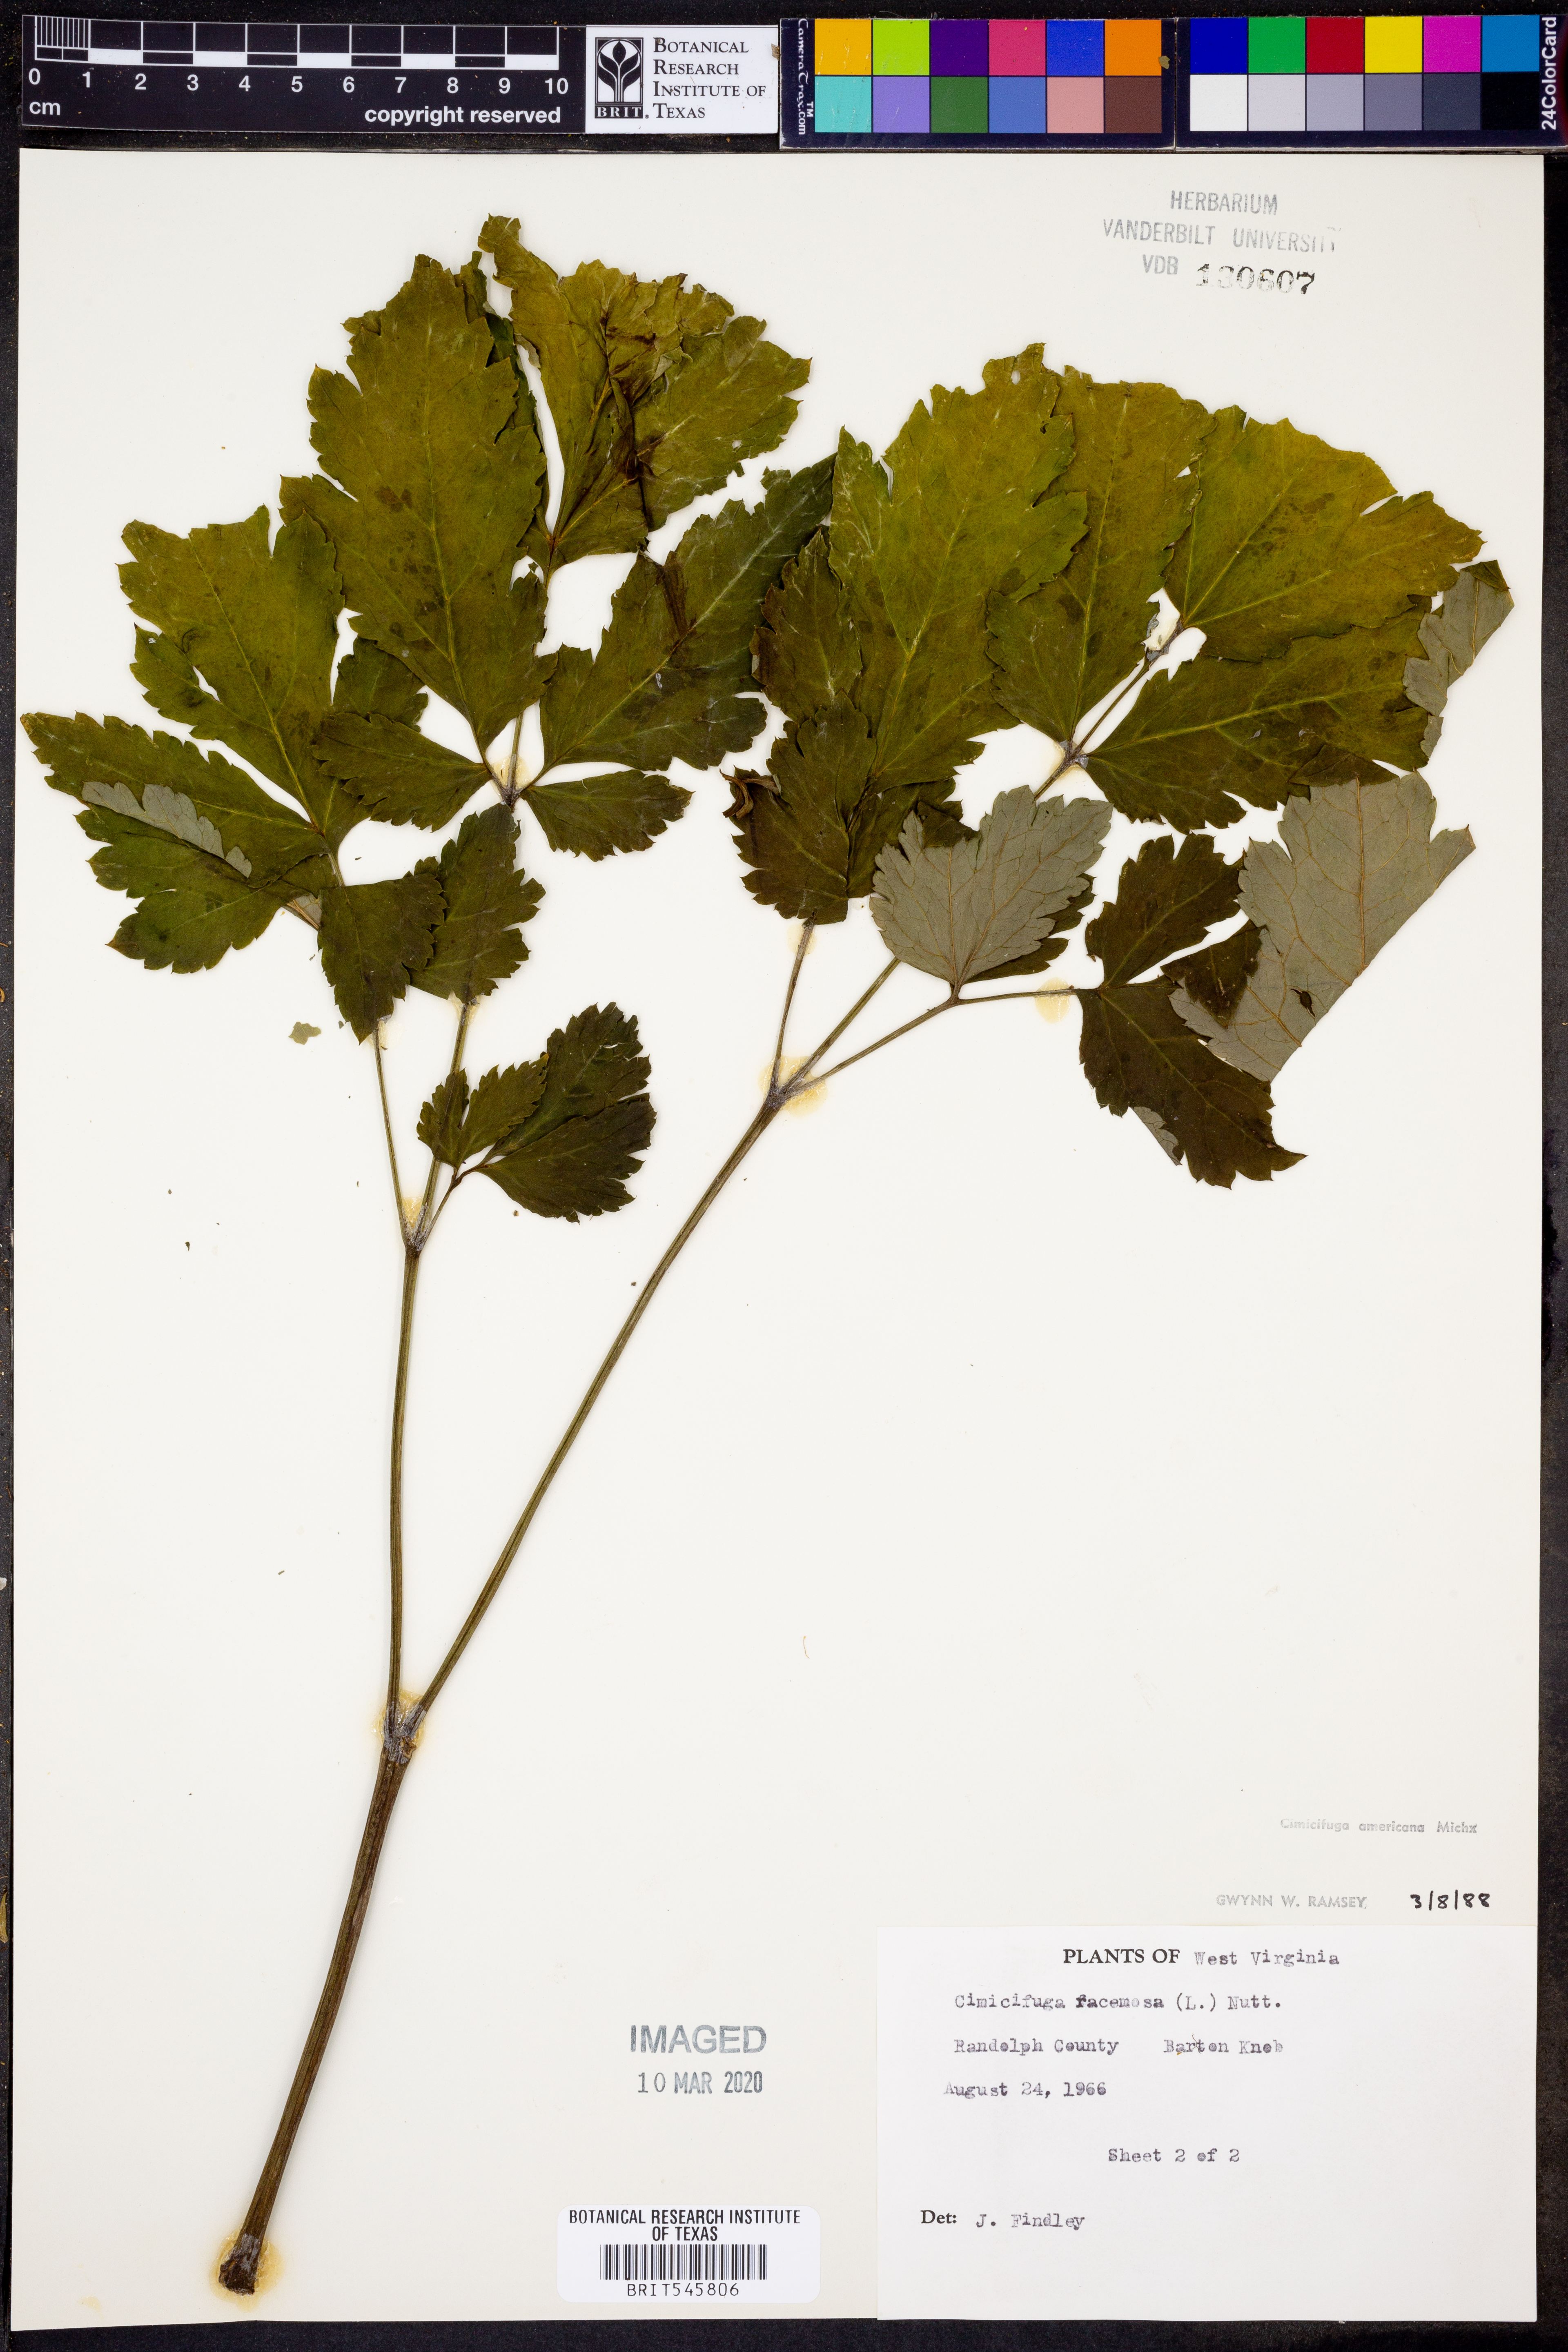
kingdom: Plantae
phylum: Tracheophyta
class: Magnoliopsida
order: Ranunculales
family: Ranunculaceae
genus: Actaea
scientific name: Actaea racemosa
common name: Black cohosh
